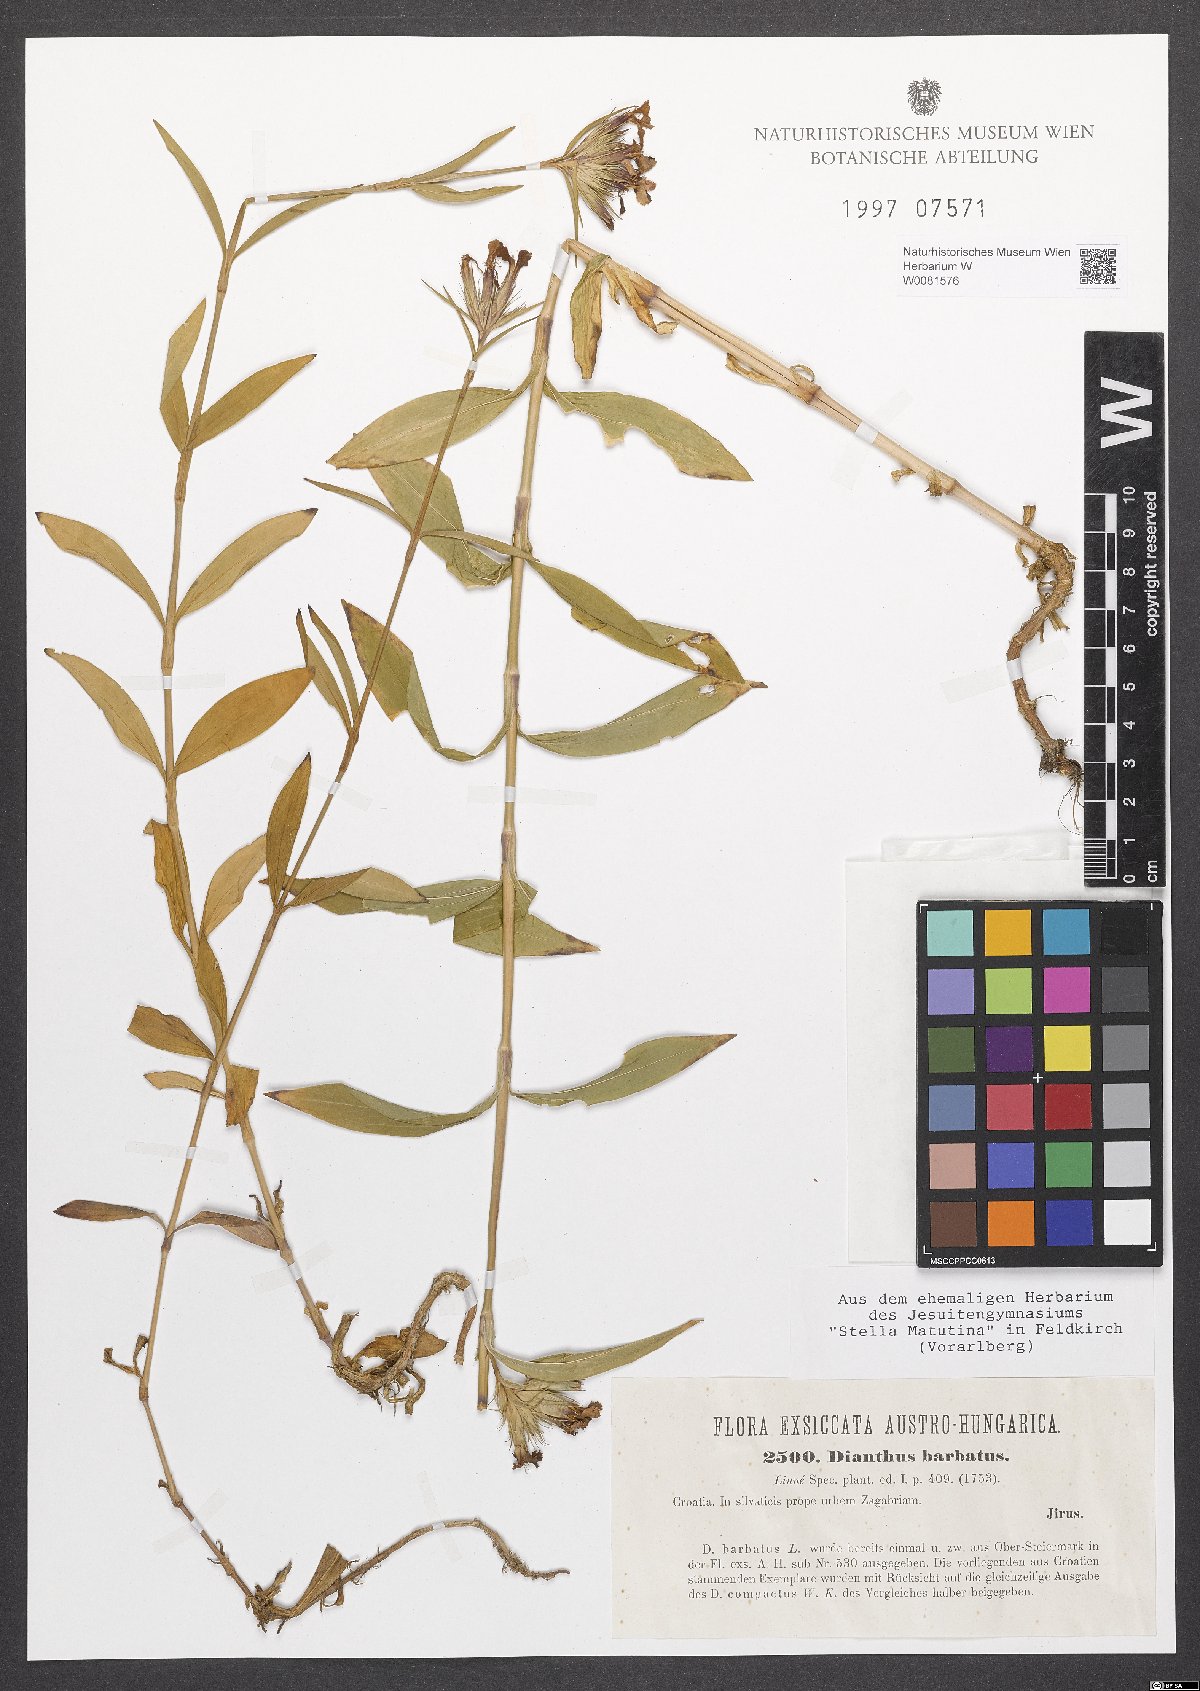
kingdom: Plantae
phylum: Tracheophyta
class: Magnoliopsida
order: Caryophyllales
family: Caryophyllaceae
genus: Dianthus
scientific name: Dianthus barbatus
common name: Sweet-william
